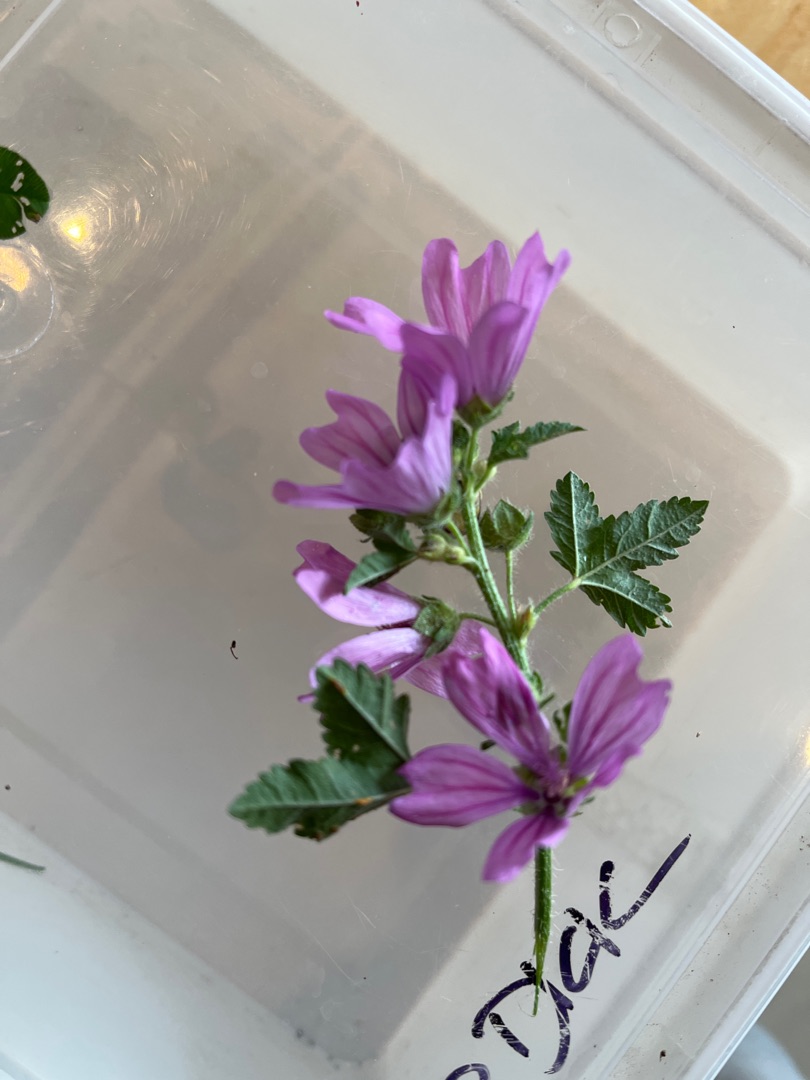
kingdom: Plantae
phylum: Tracheophyta
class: Magnoliopsida
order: Malvales
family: Malvaceae
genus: Malva
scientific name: Malva sylvestris
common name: Almindelig katost
